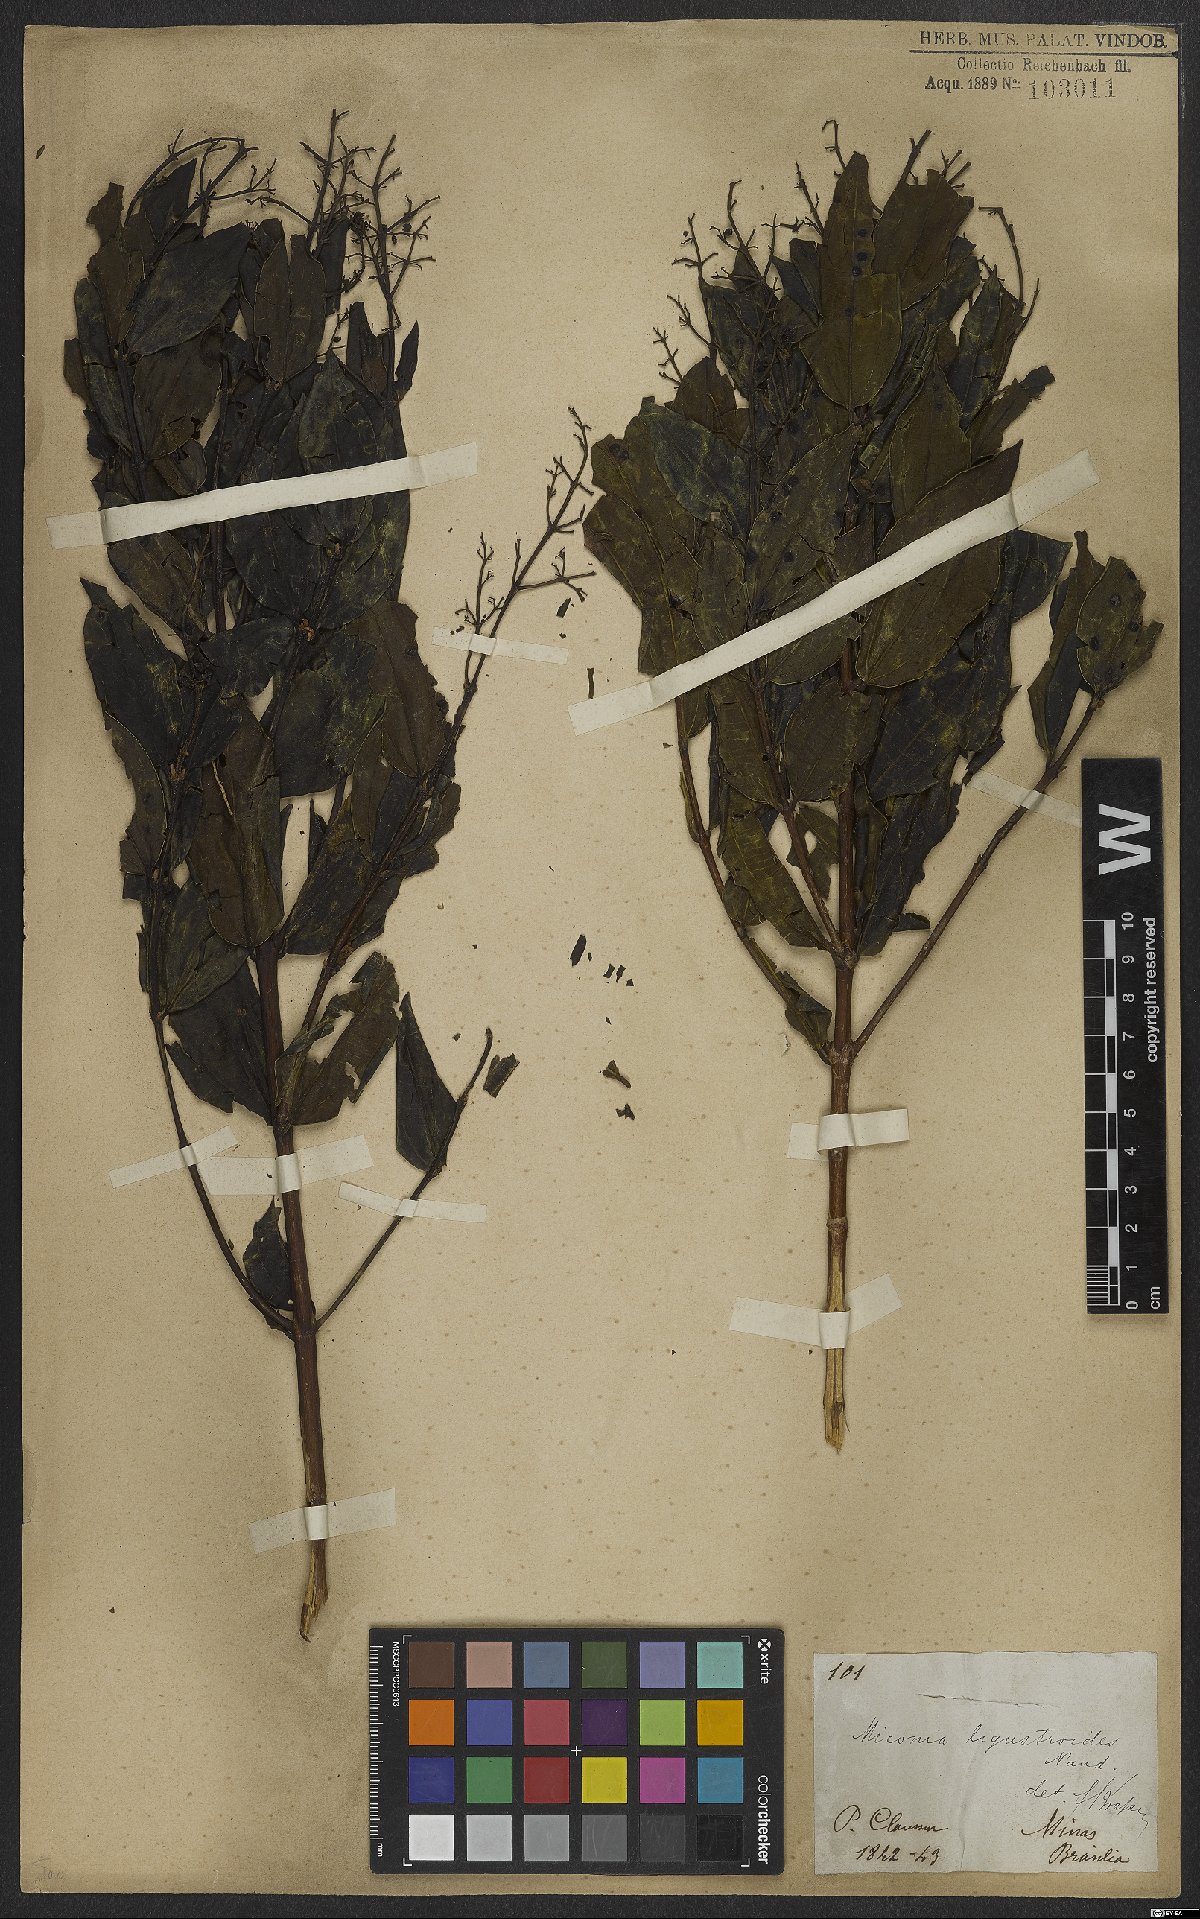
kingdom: Plantae
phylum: Tracheophyta
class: Magnoliopsida
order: Myrtales
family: Melastomataceae
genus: Miconia
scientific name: Miconia ligustroides
